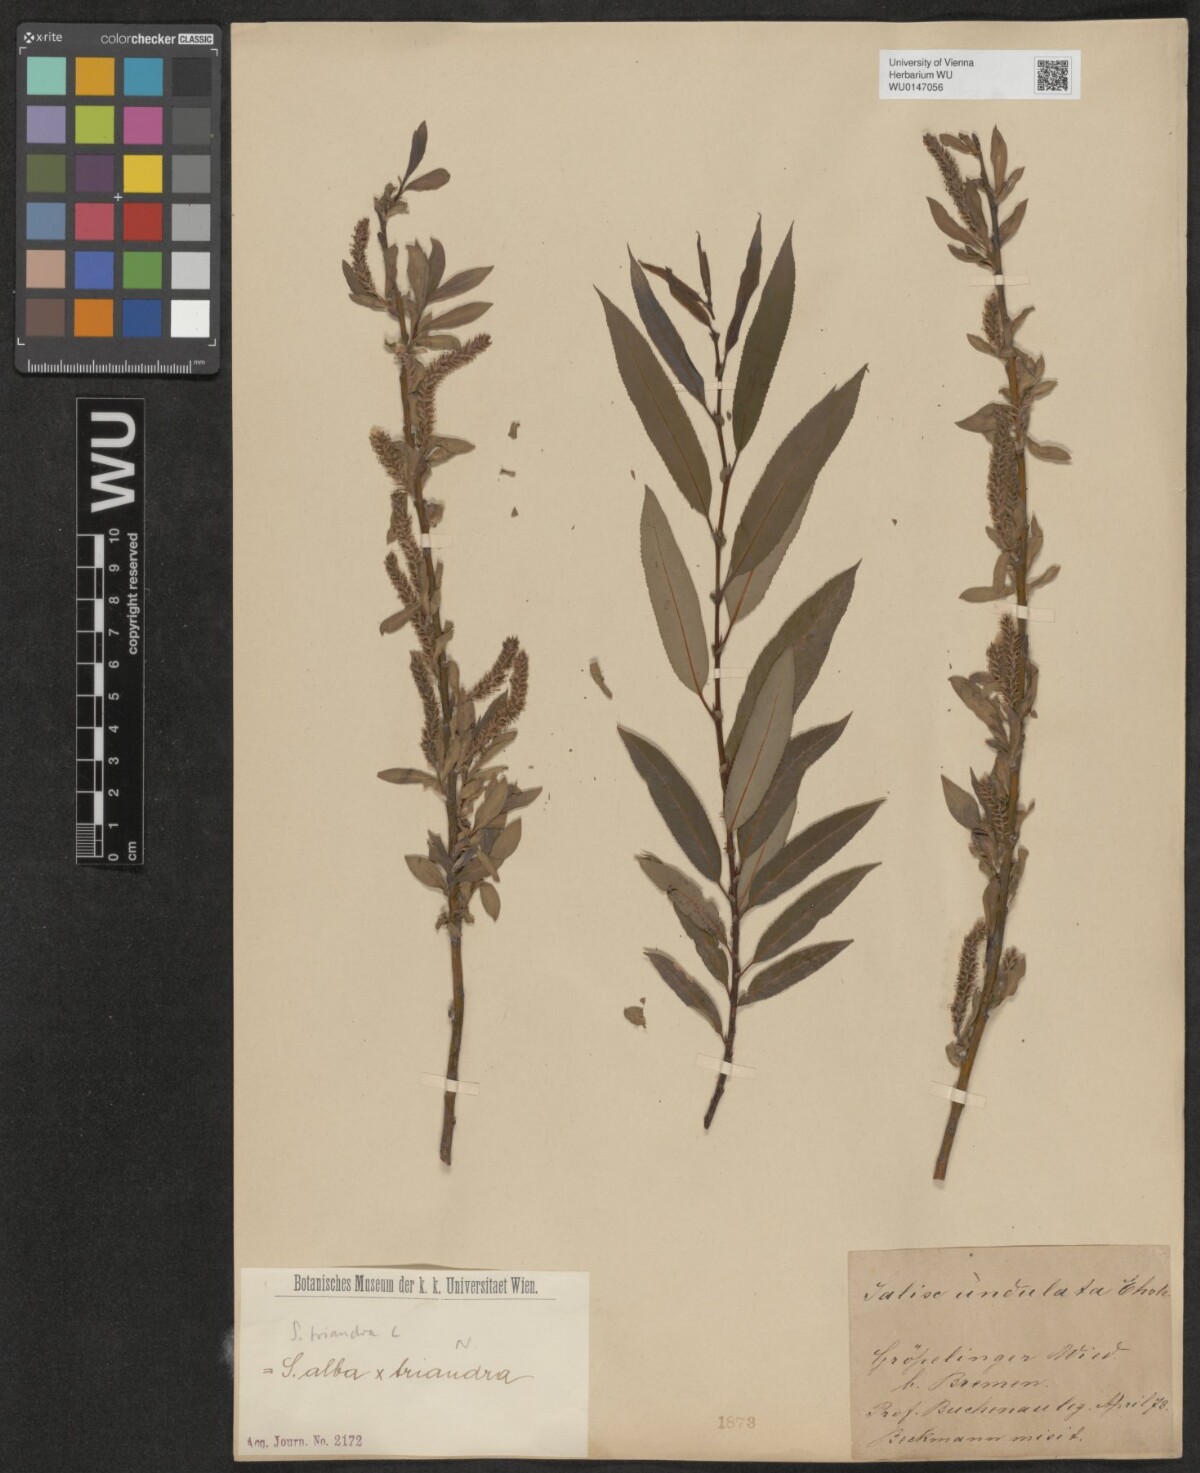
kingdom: Plantae
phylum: Tracheophyta
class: Magnoliopsida
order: Malpighiales
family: Salicaceae
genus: Salix
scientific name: Salix triandra
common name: Almond willow
